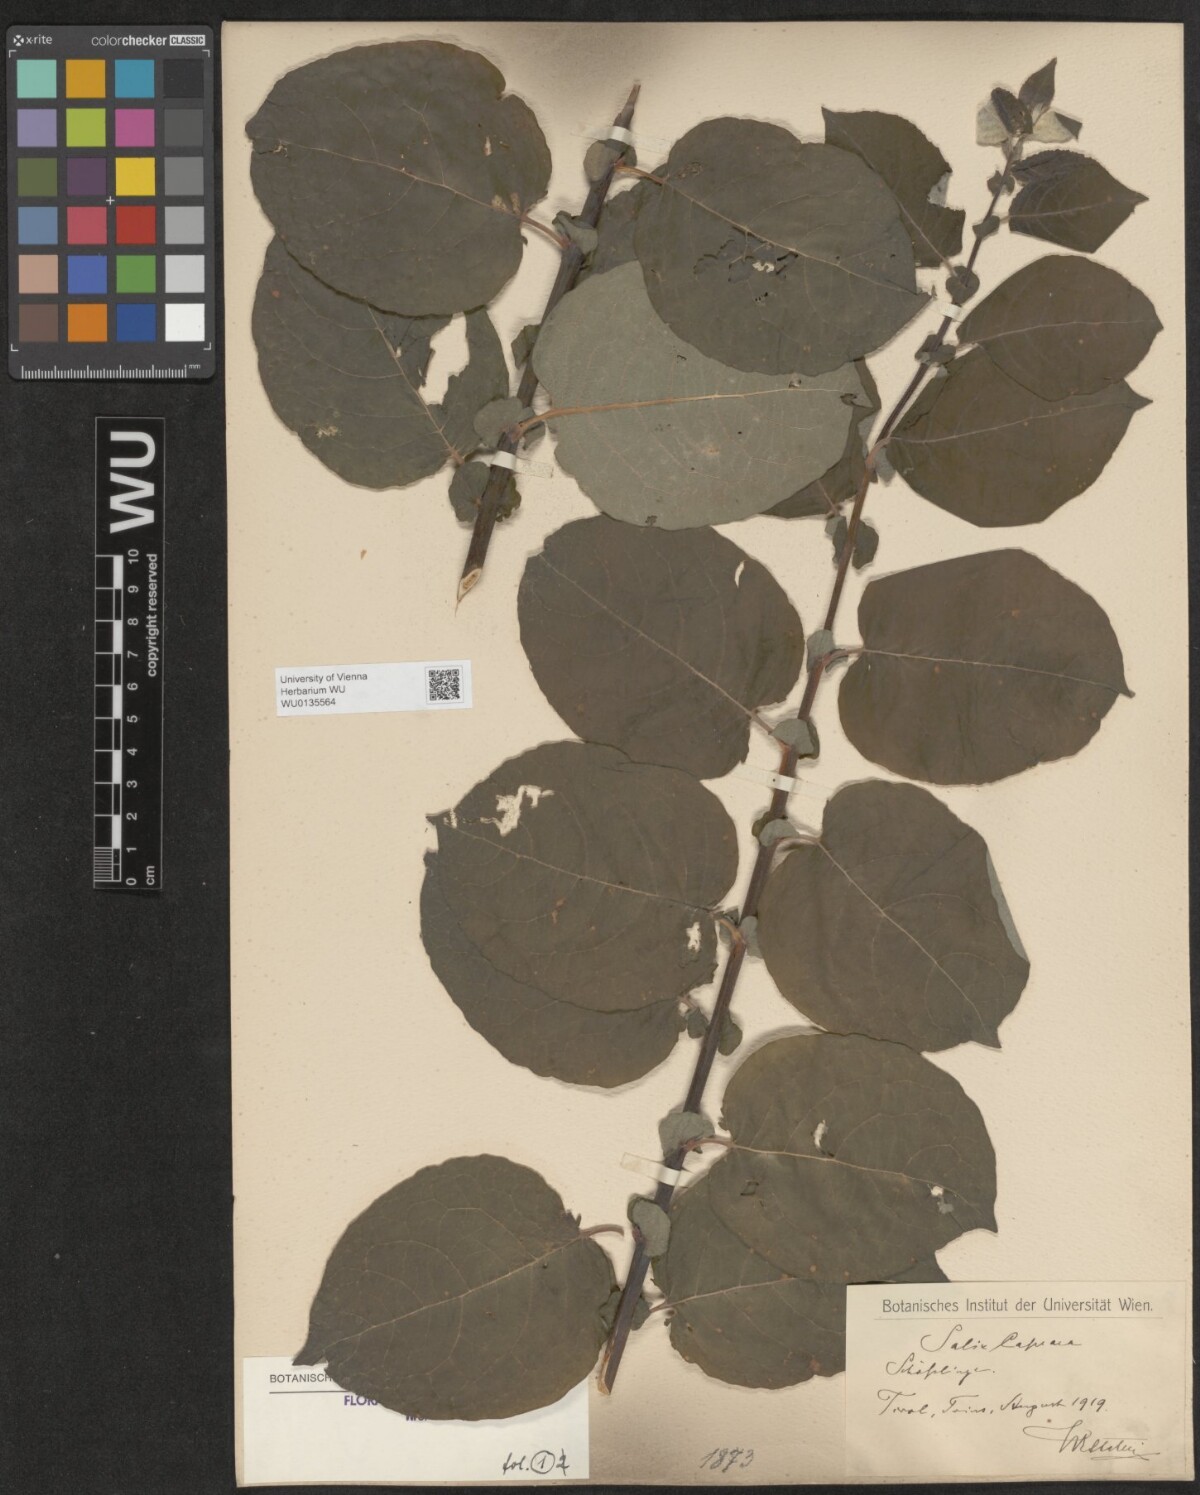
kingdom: Plantae
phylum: Tracheophyta
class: Magnoliopsida
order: Malpighiales
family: Salicaceae
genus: Salix
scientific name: Salix caprea
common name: Goat willow
